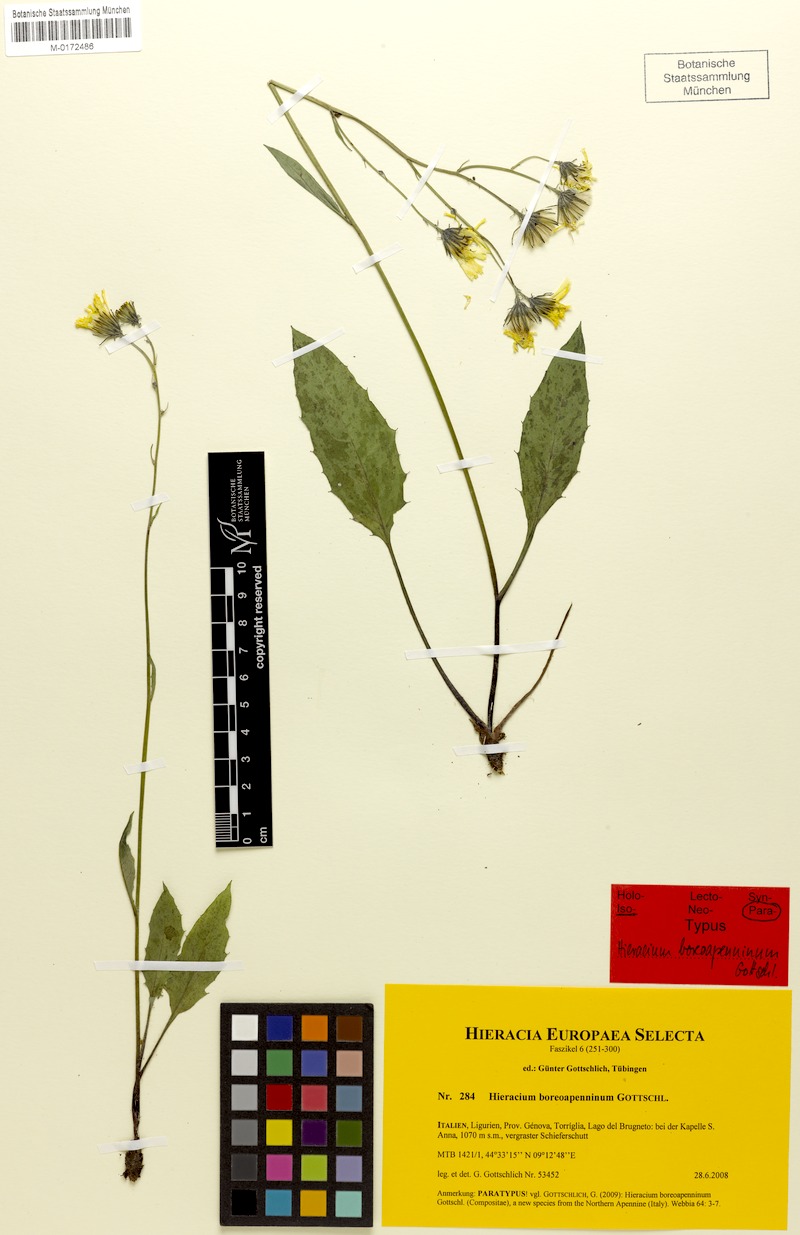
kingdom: Plantae
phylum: Tracheophyta
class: Magnoliopsida
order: Asterales
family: Asteraceae
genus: Hieracium
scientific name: Hieracium boreoapenninum
